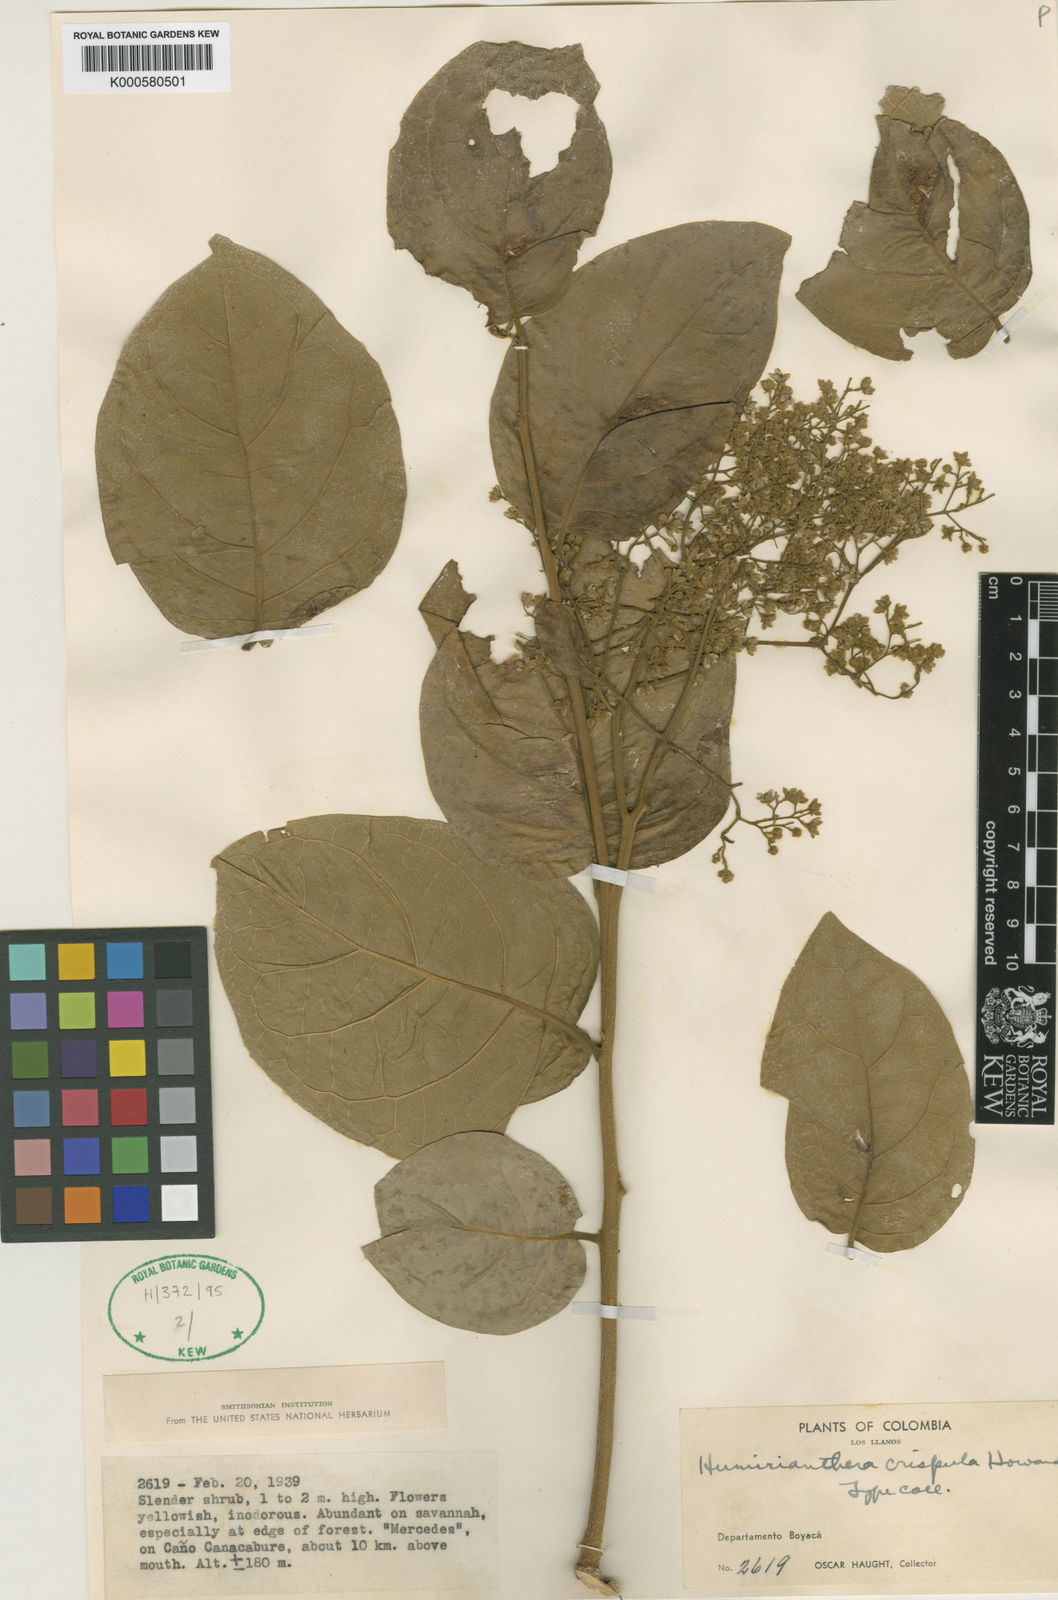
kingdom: Plantae
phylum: Tracheophyta
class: Magnoliopsida
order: Icacinales
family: Icacinaceae
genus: Casimirella
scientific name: Casimirella crispula
